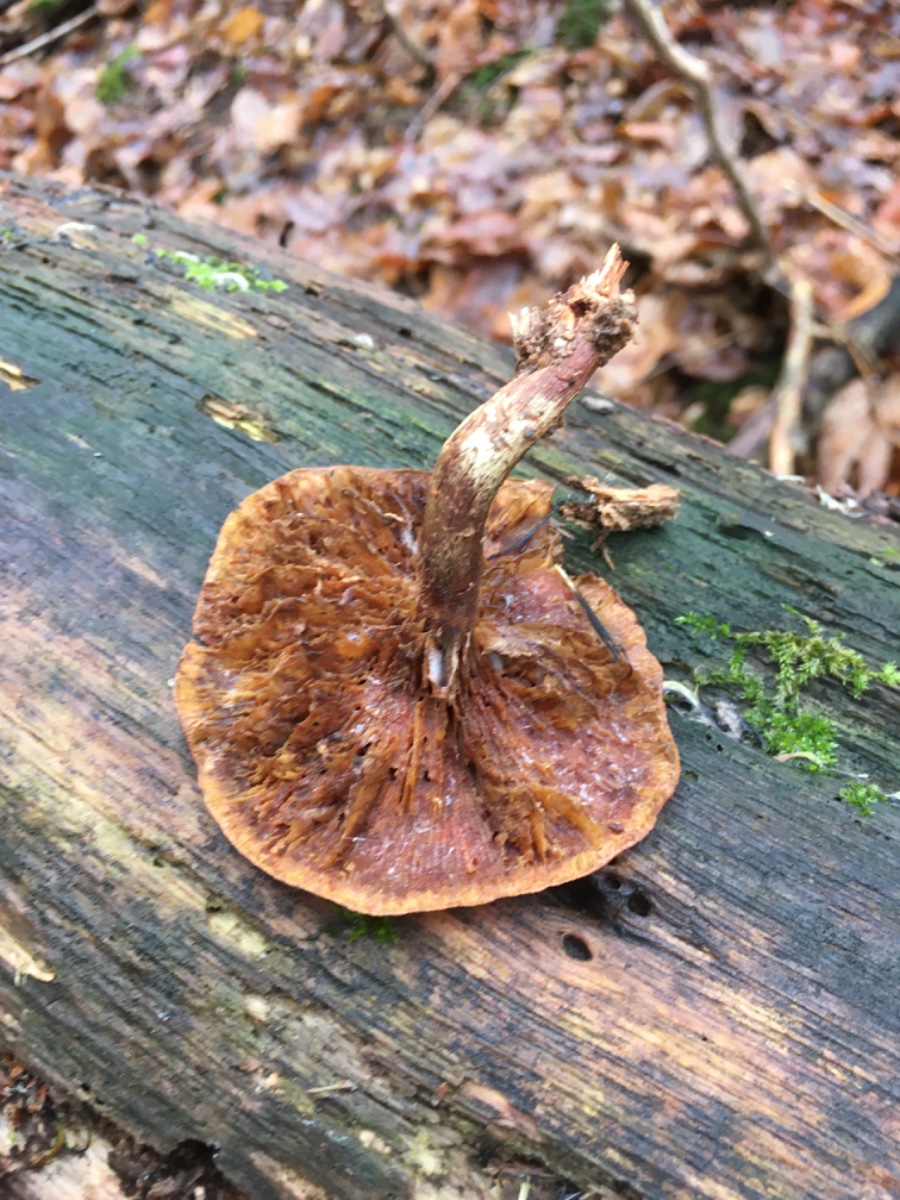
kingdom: Fungi
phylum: Basidiomycota
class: Agaricomycetes
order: Agaricales
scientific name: Agaricales
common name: champignonordenen
